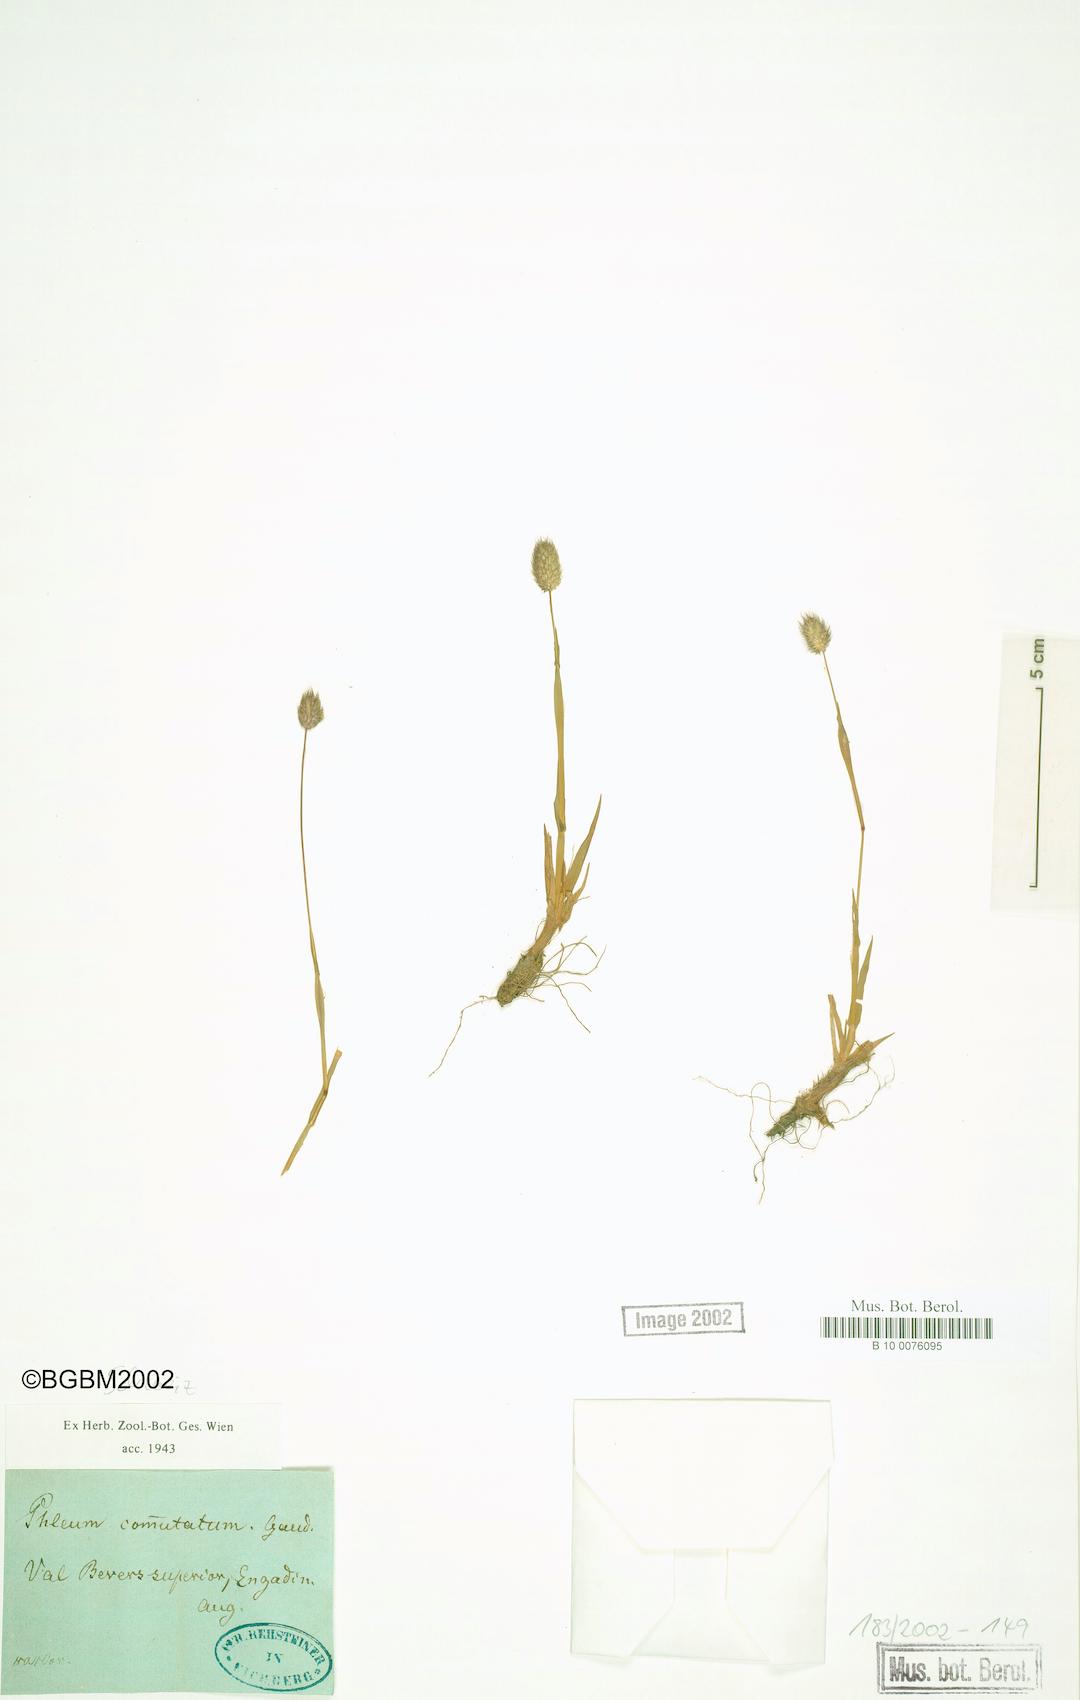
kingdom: Plantae
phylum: Tracheophyta
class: Liliopsida
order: Poales
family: Poaceae
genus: Phleum
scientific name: Phleum alpinum
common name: Alpine cat's-tail
